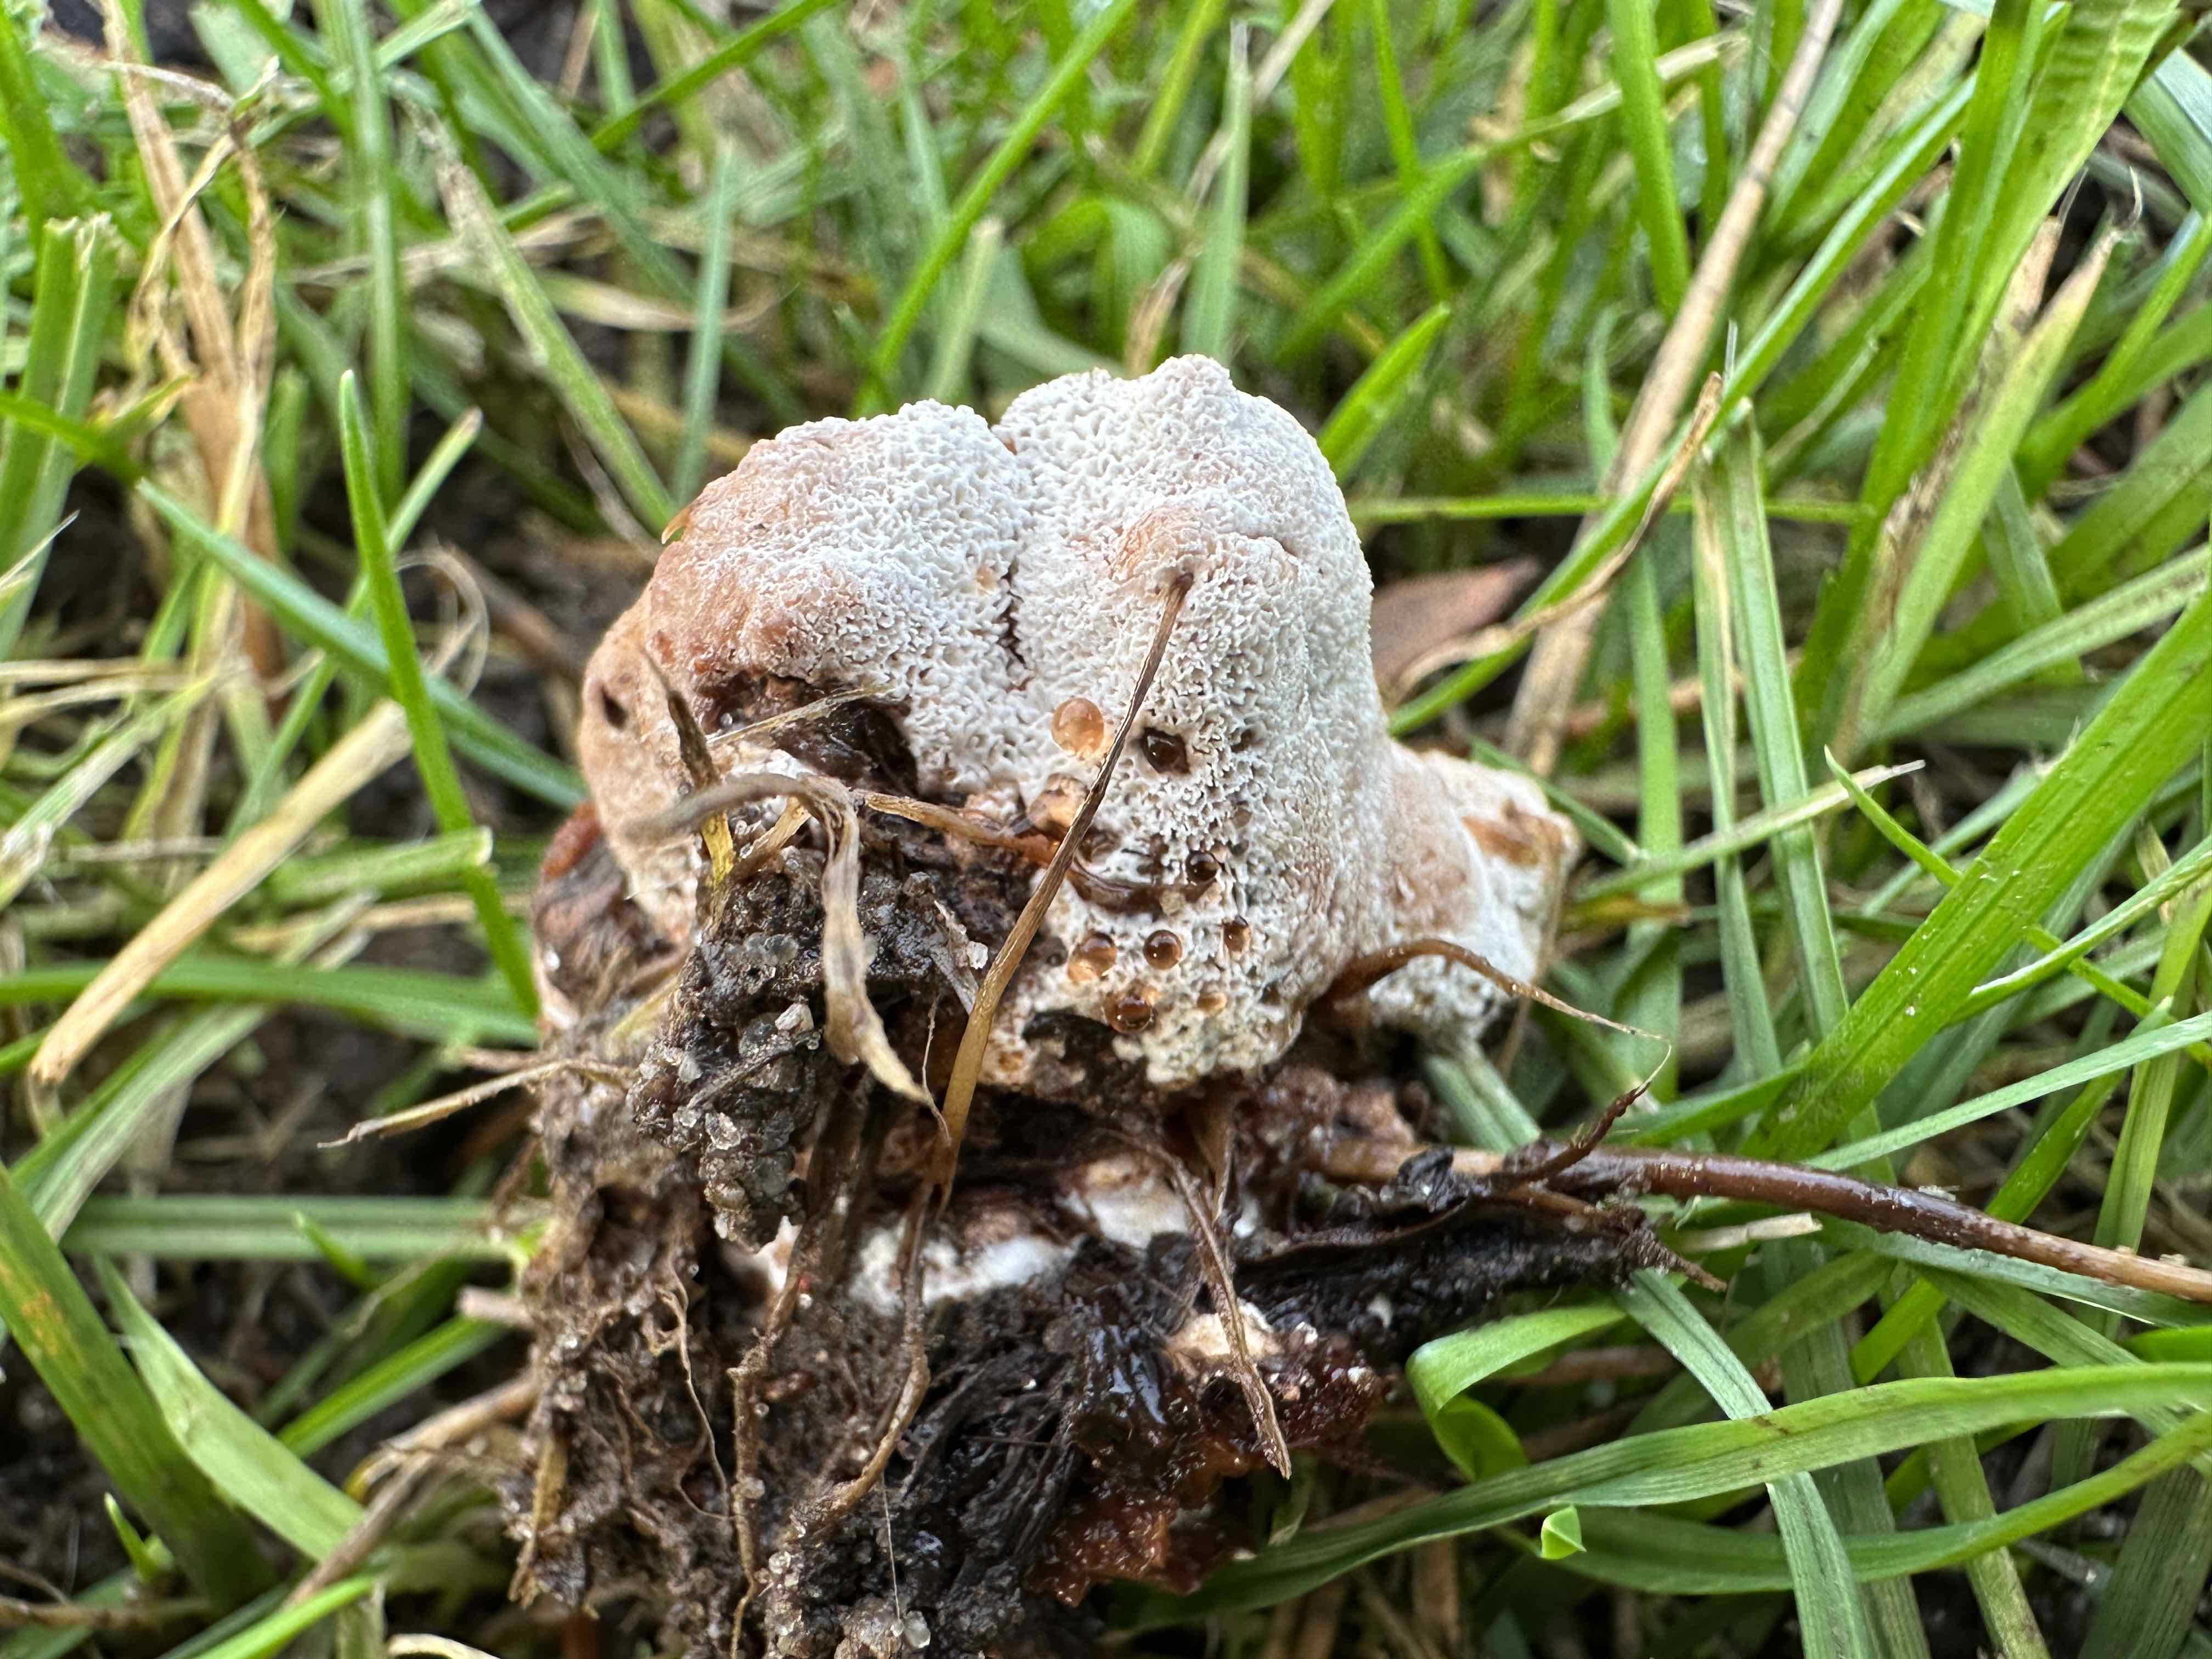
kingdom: Fungi
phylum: Basidiomycota
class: Agaricomycetes
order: Polyporales
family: Podoscyphaceae
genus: Abortiporus
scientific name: Abortiporus biennis
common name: rødmende pjalteporesvamp
